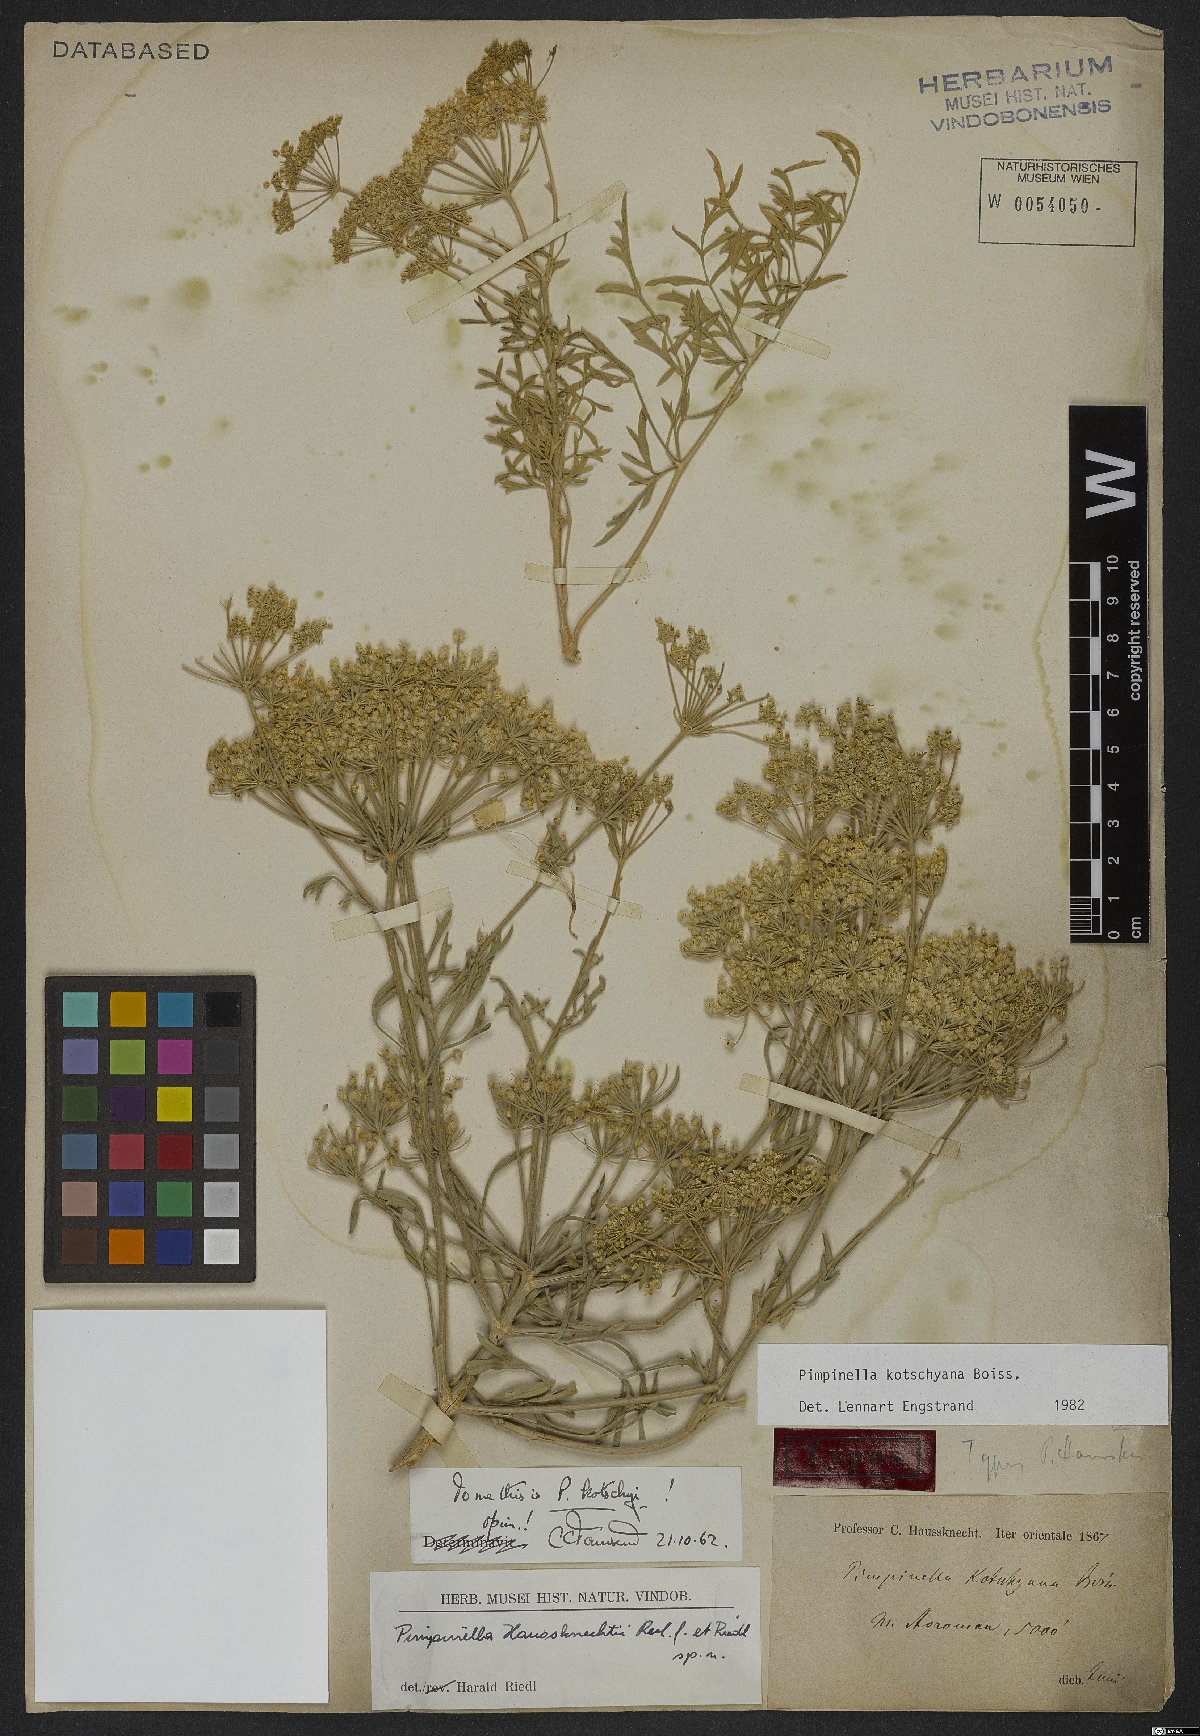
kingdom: Plantae
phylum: Tracheophyta
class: Magnoliopsida
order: Apiales
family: Apiaceae
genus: Pimpinella
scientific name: Pimpinella kotschyana
